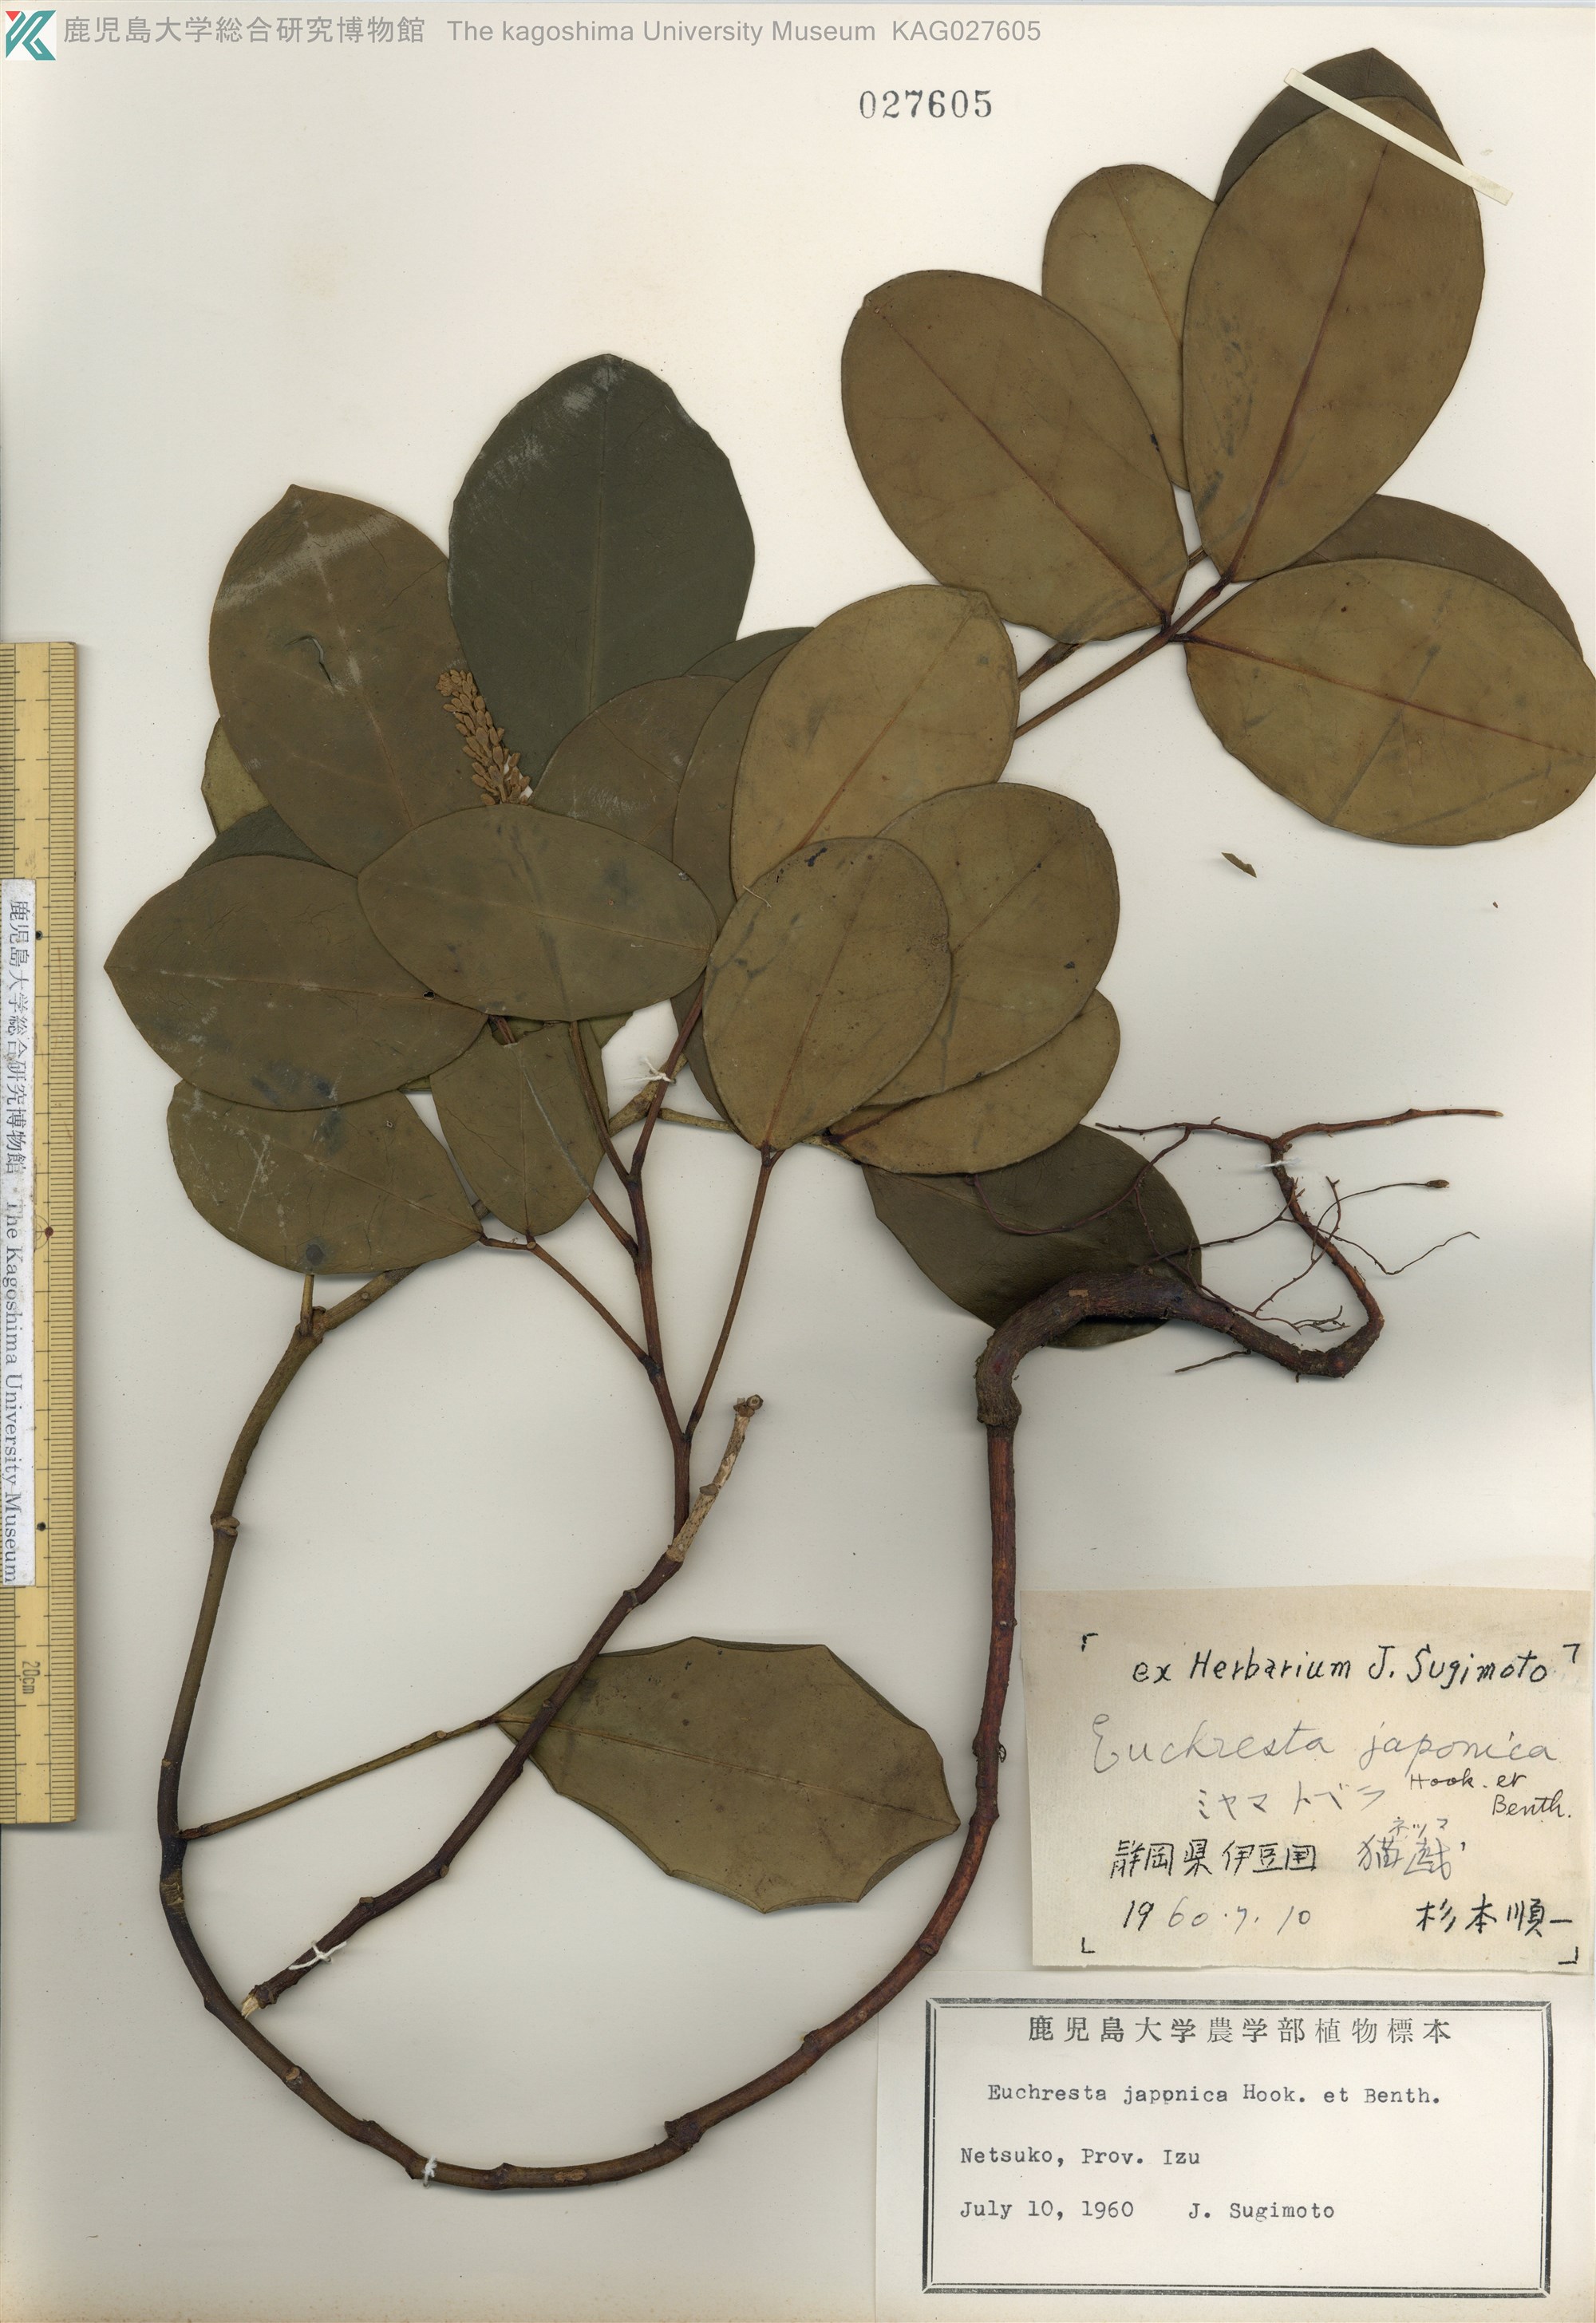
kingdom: Plantae
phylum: Tracheophyta
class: Magnoliopsida
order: Fabales
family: Fabaceae
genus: Euchresta
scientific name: Euchresta japonica
